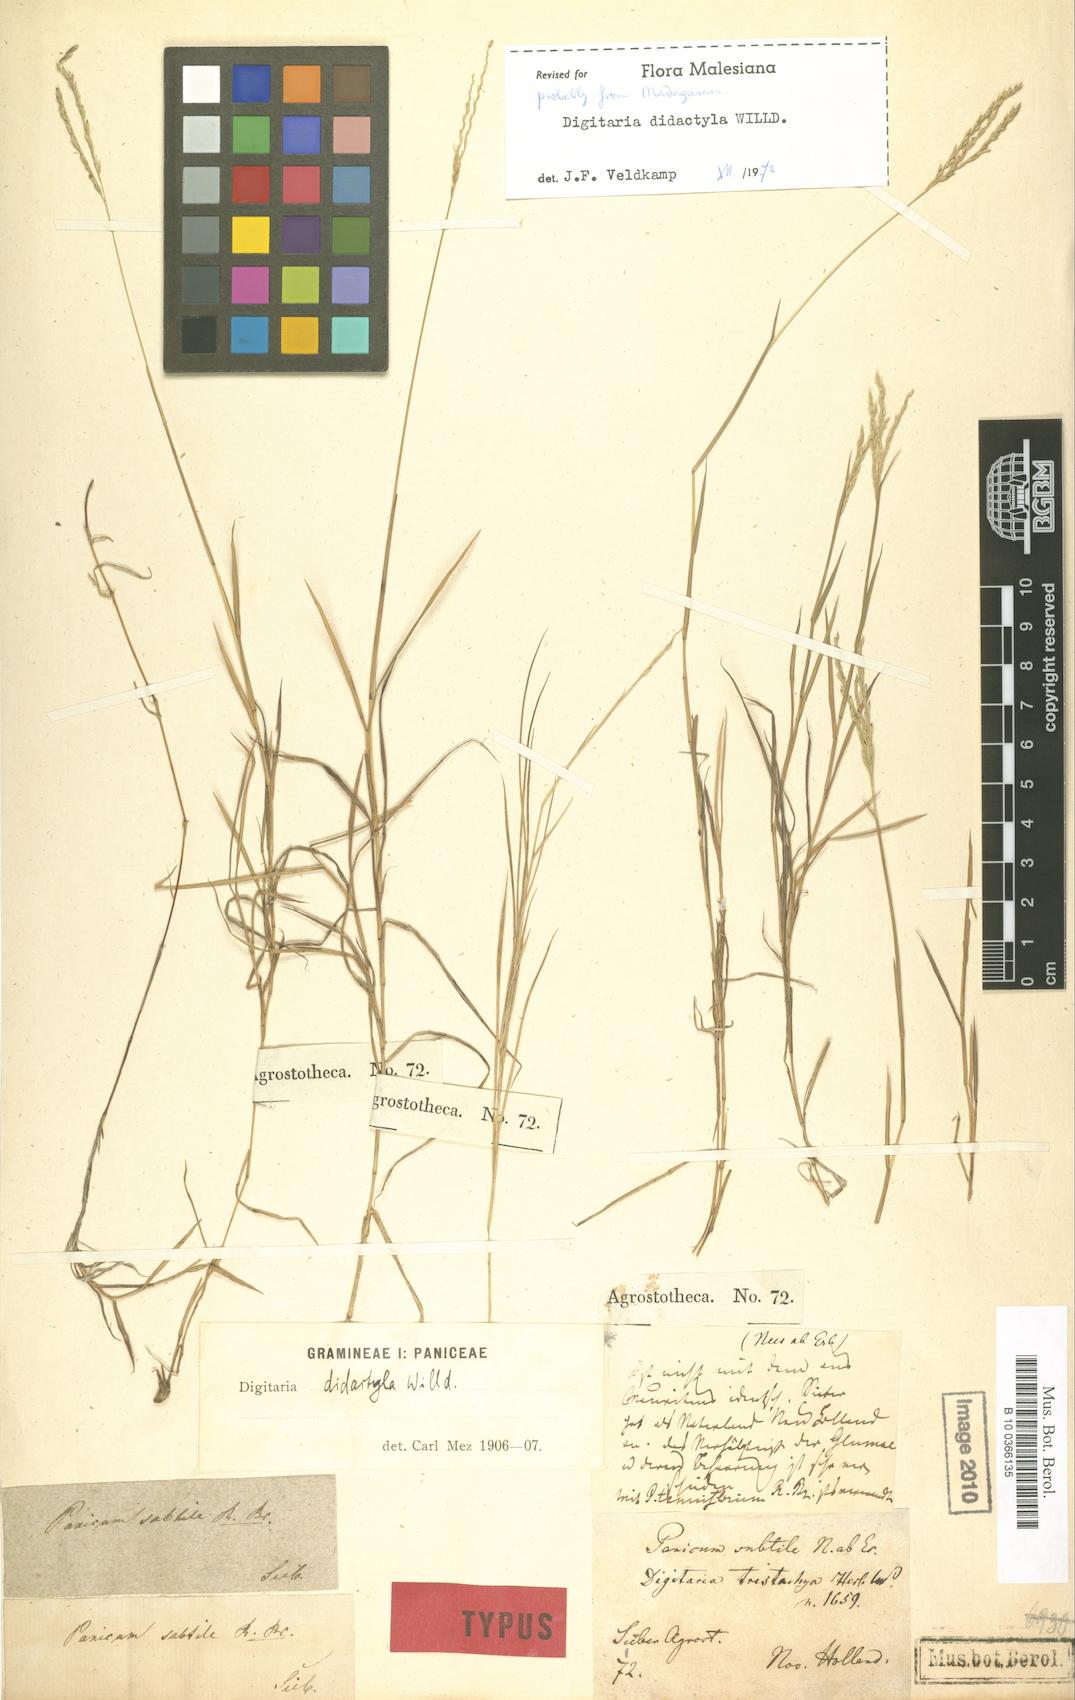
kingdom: Plantae
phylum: Tracheophyta
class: Liliopsida
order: Poales
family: Poaceae
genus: Digitaria
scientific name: Digitaria didactyla
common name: Blue couch
